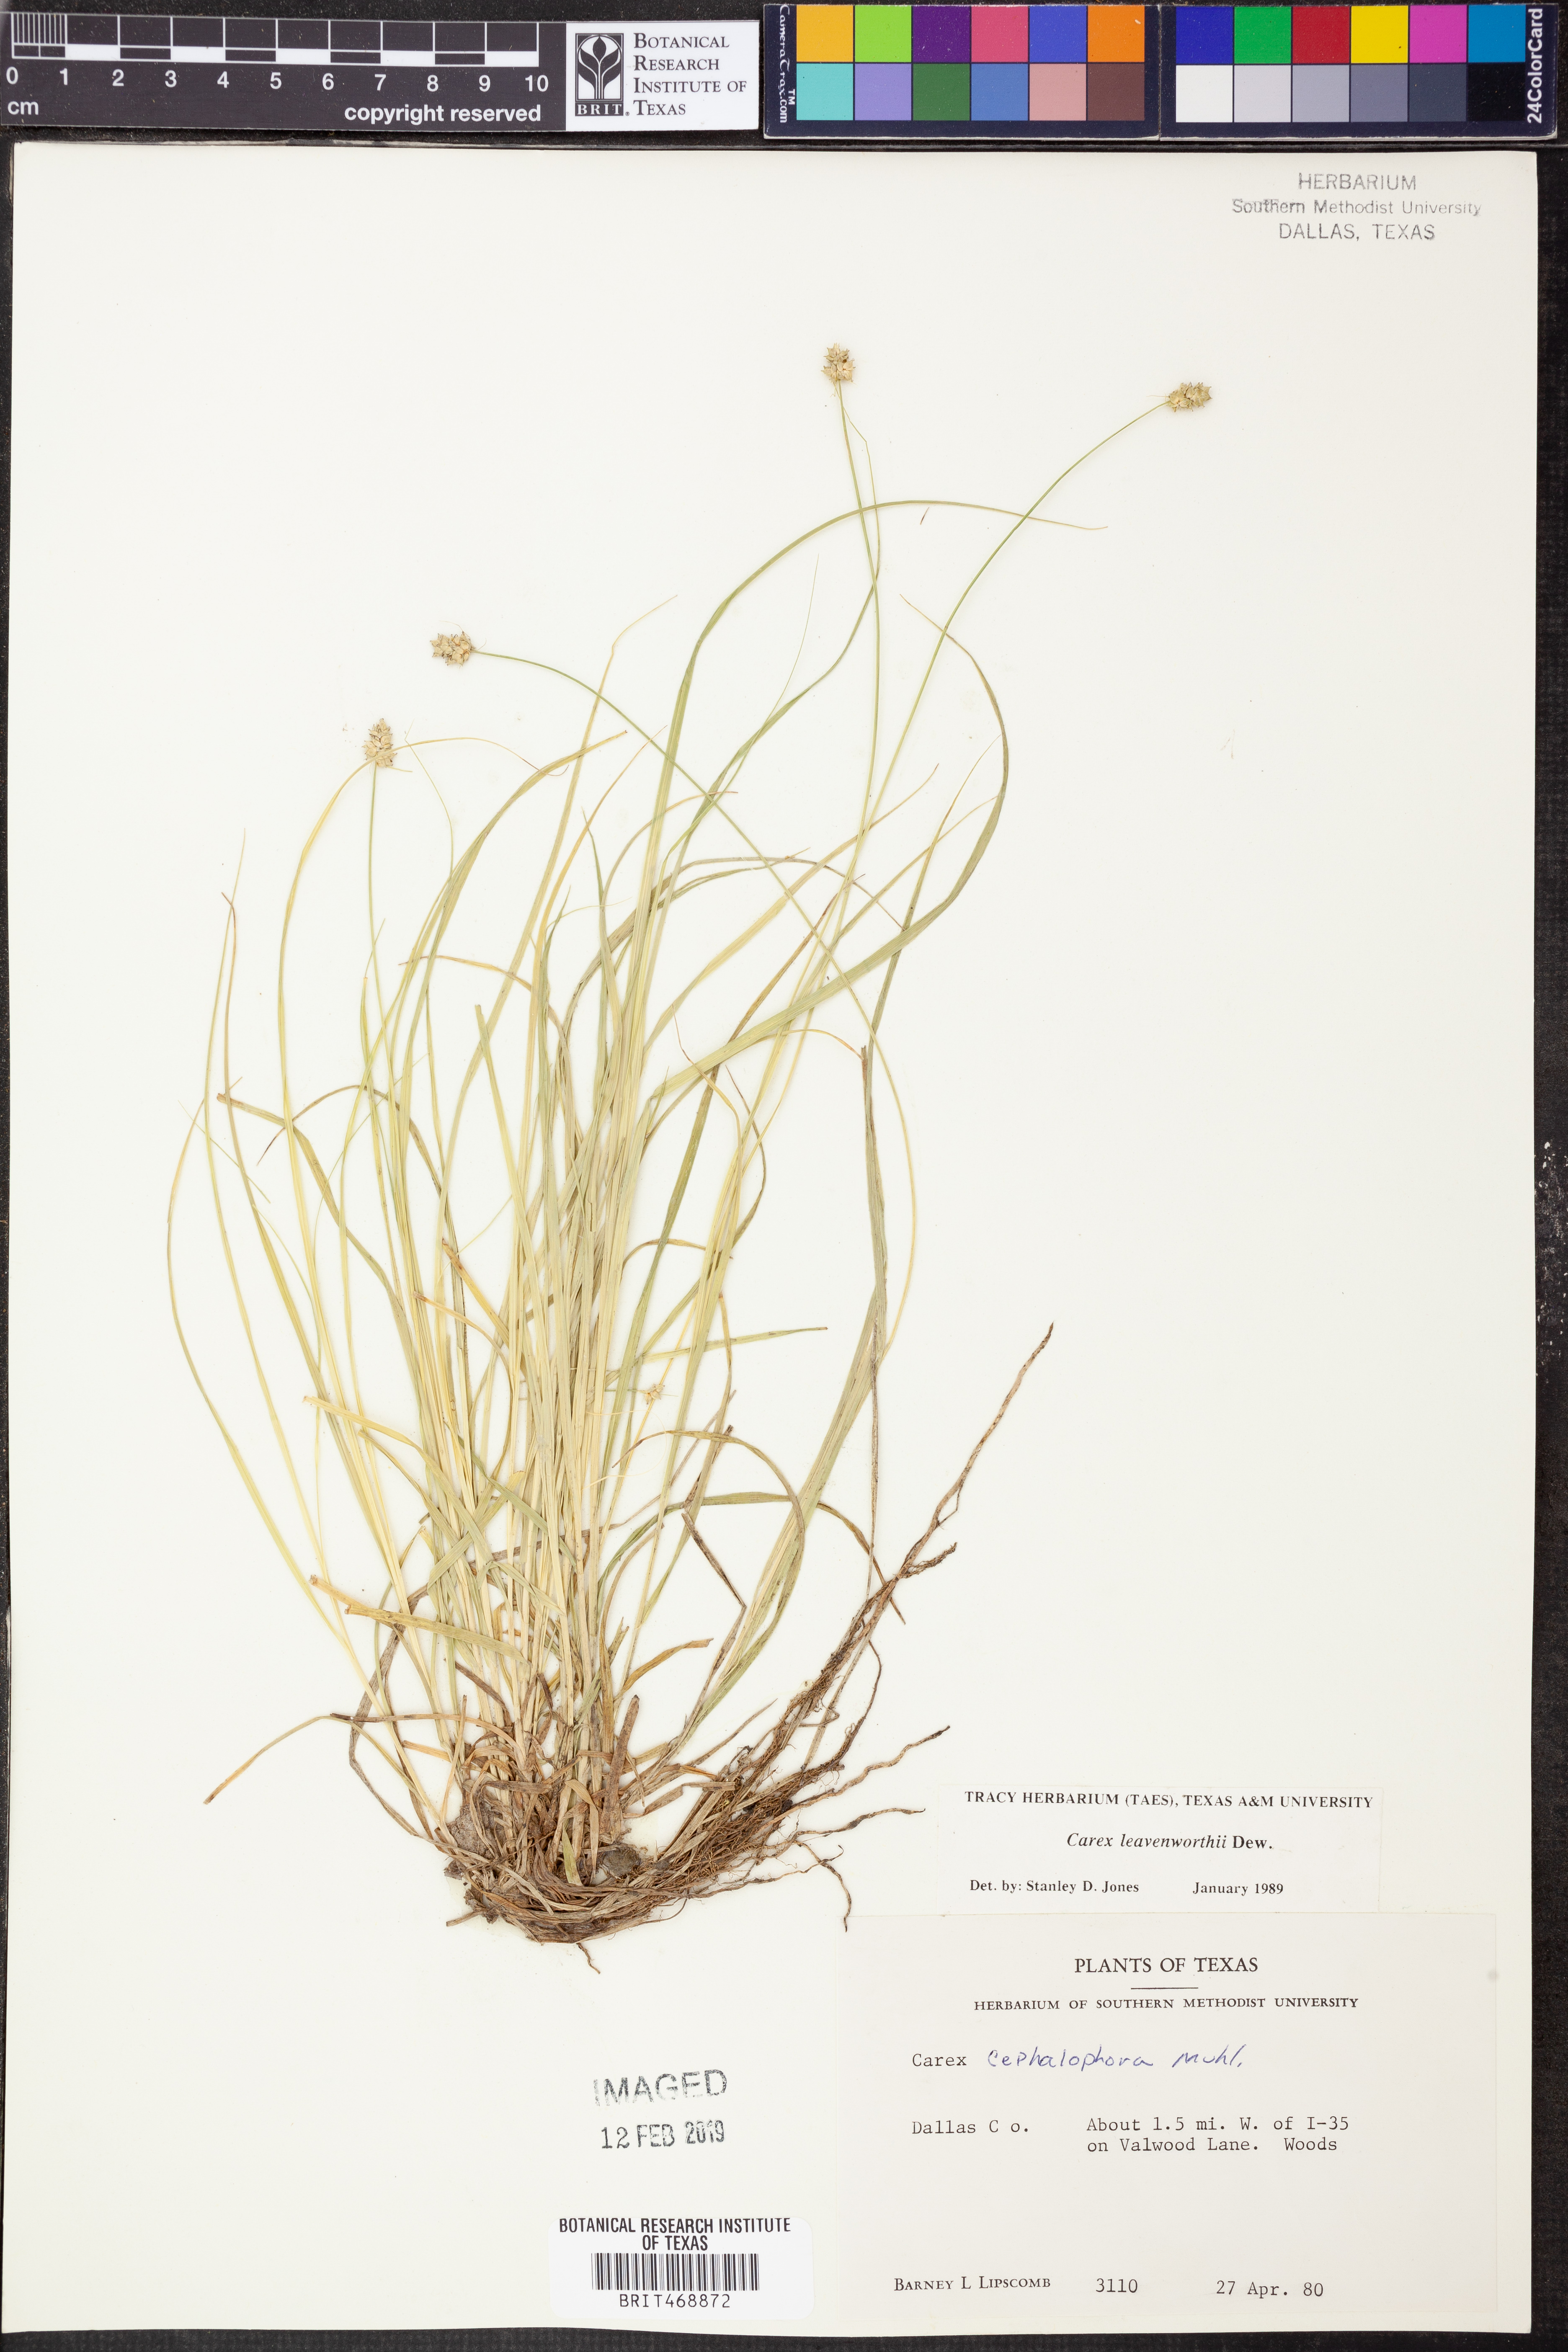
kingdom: Plantae
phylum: Tracheophyta
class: Liliopsida
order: Poales
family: Cyperaceae
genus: Carex
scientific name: Carex leavenworthii
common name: Leavenworth's bracted sedge
